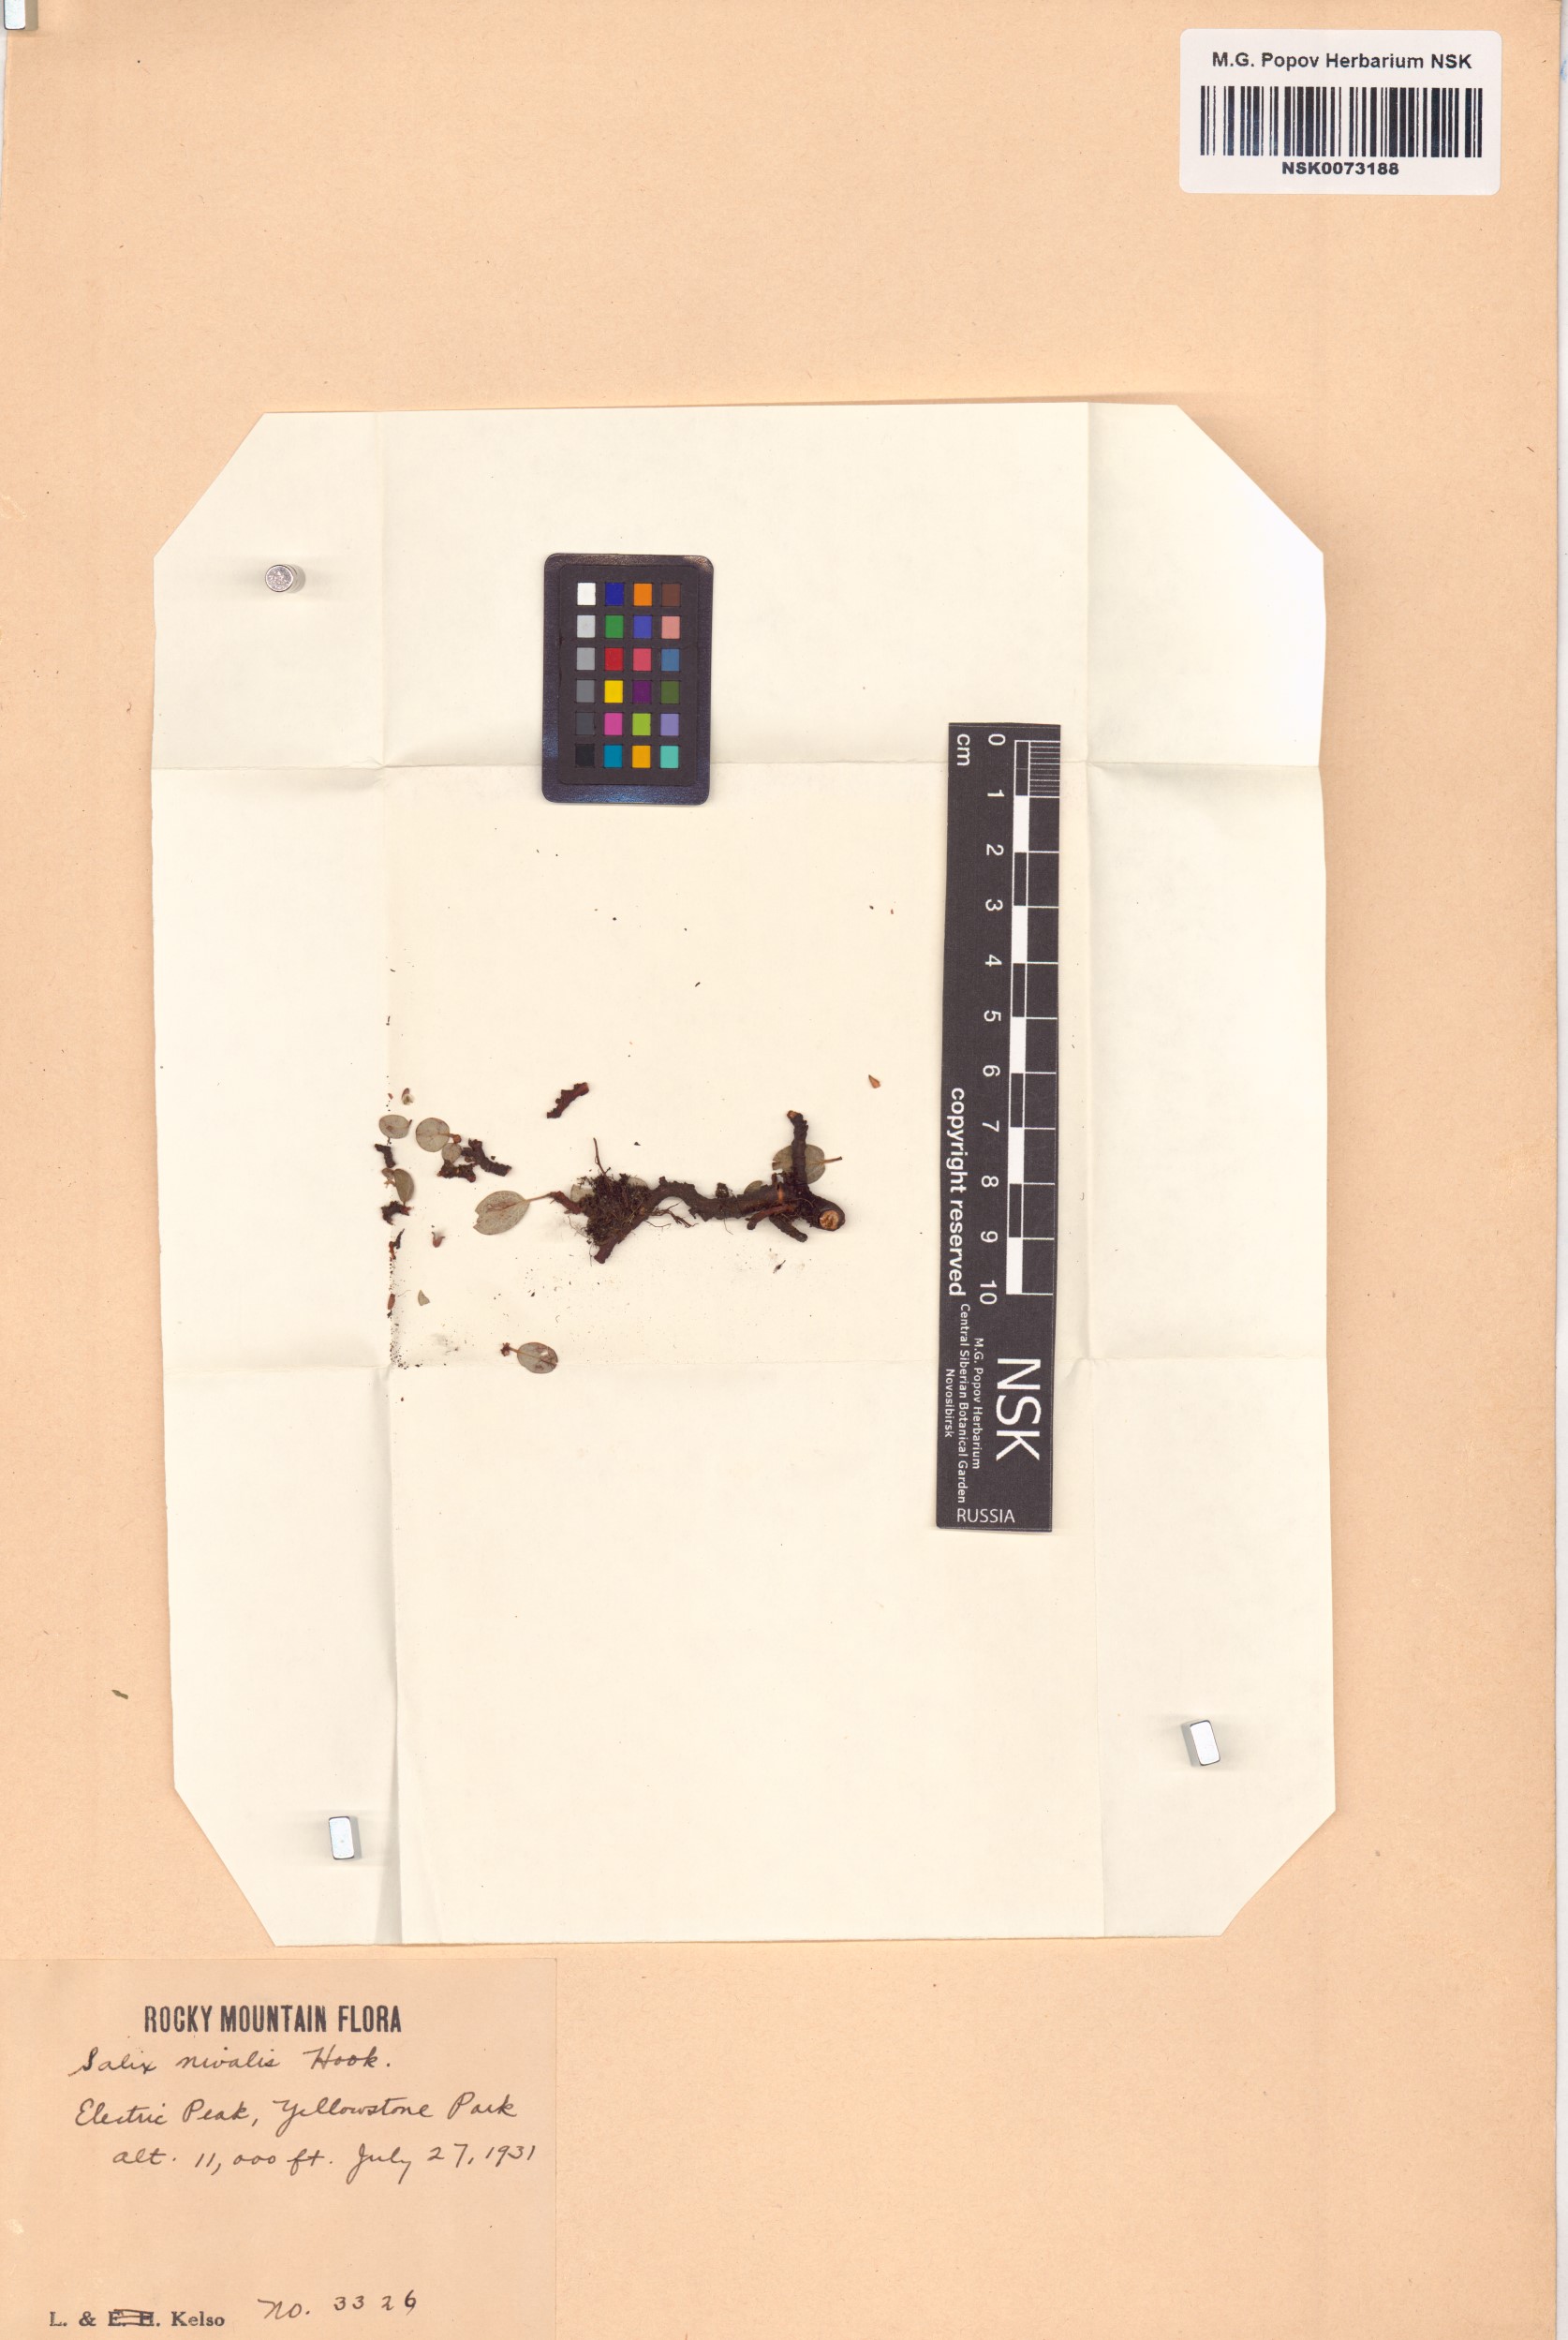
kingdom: Plantae
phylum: Tracheophyta
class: Magnoliopsida
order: Malpighiales
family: Salicaceae
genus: Salix
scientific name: Salix nivalis
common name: Dwarf snow willow
